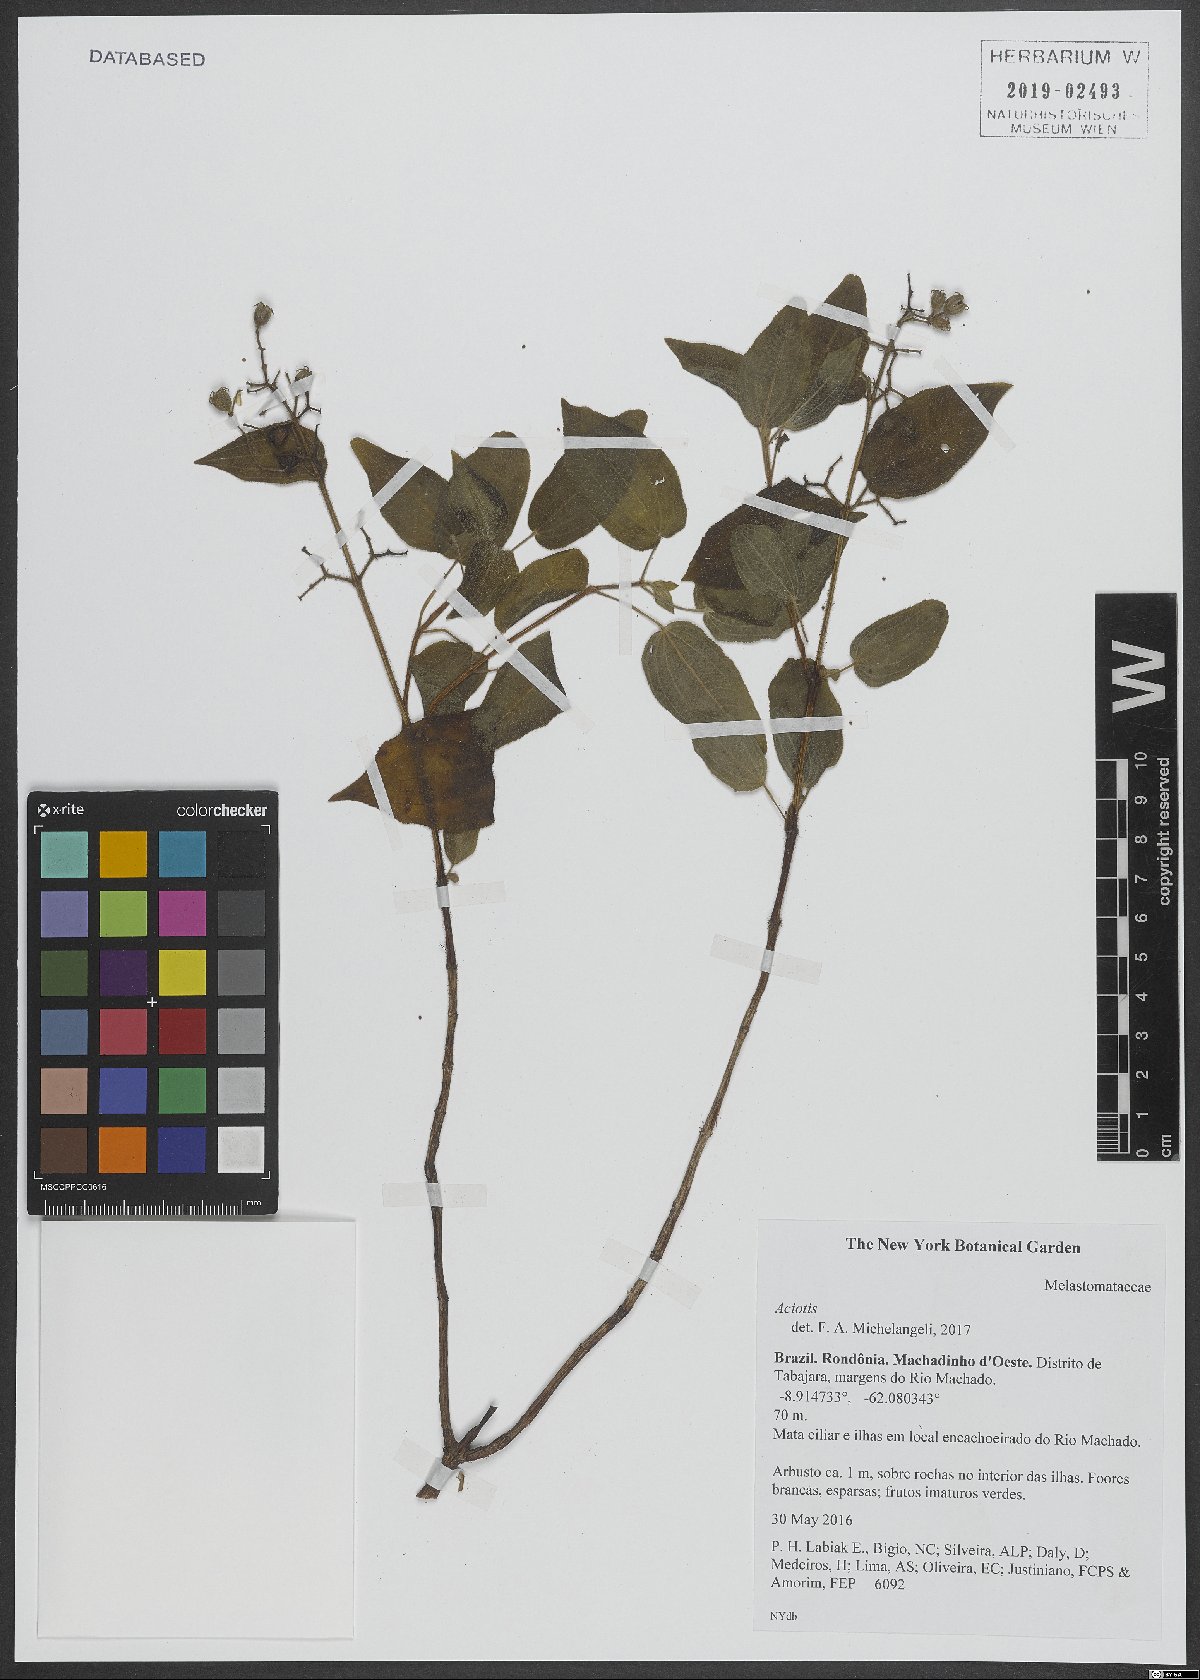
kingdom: Plantae
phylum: Tracheophyta
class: Magnoliopsida
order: Myrtales
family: Melastomataceae
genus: Aciotis
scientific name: Aciotis
